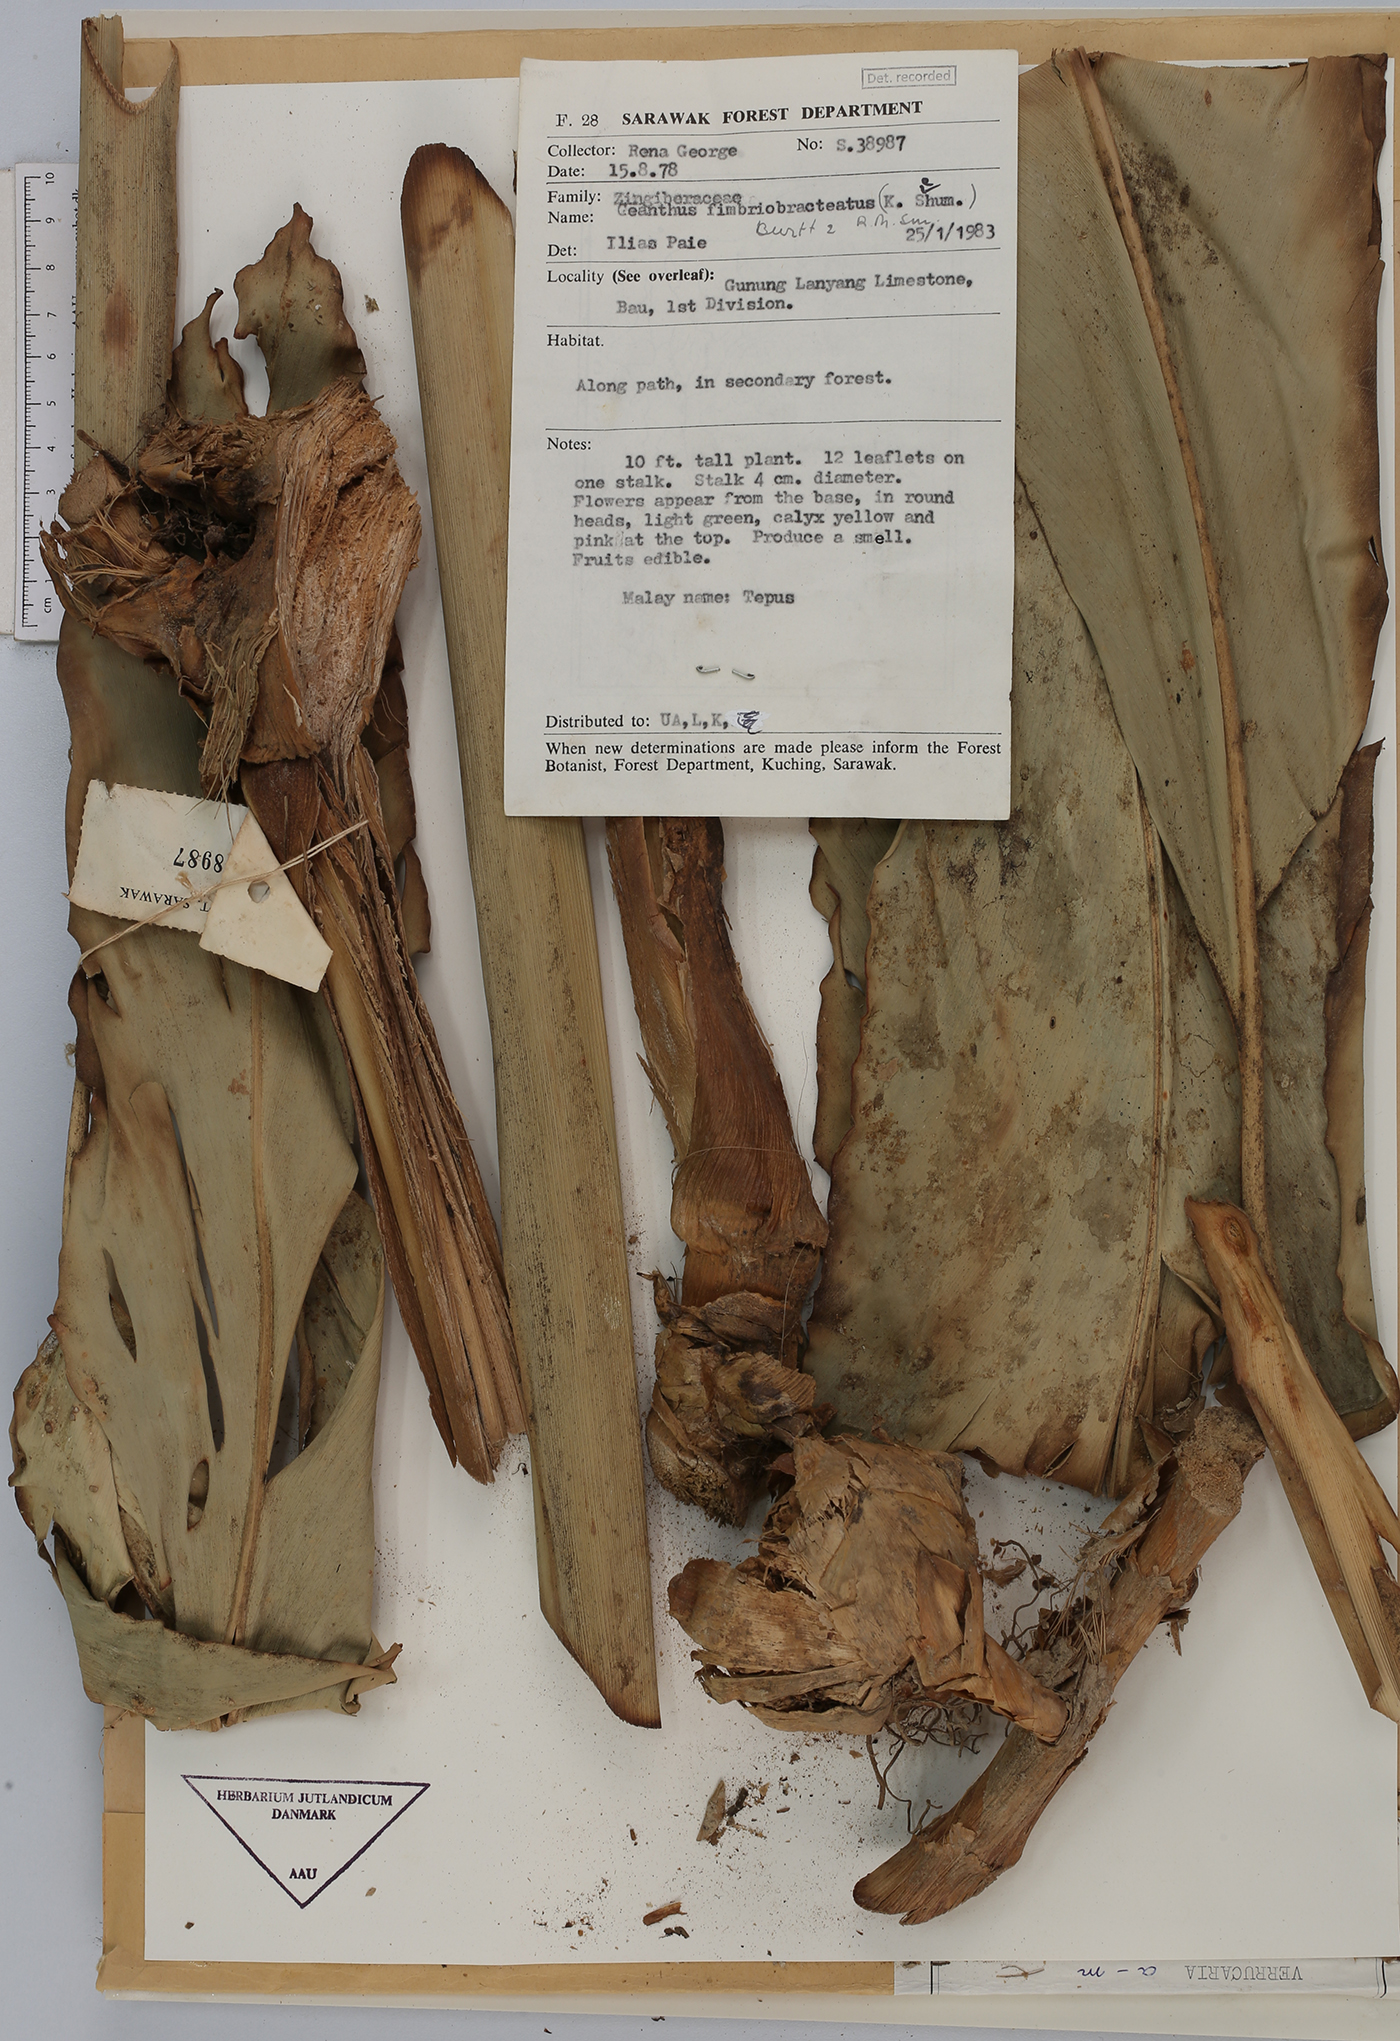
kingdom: Plantae
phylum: Tracheophyta
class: Liliopsida
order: Zingiberales
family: Zingiberaceae
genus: Etlingera
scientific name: Etlingera fimbriobracteata
